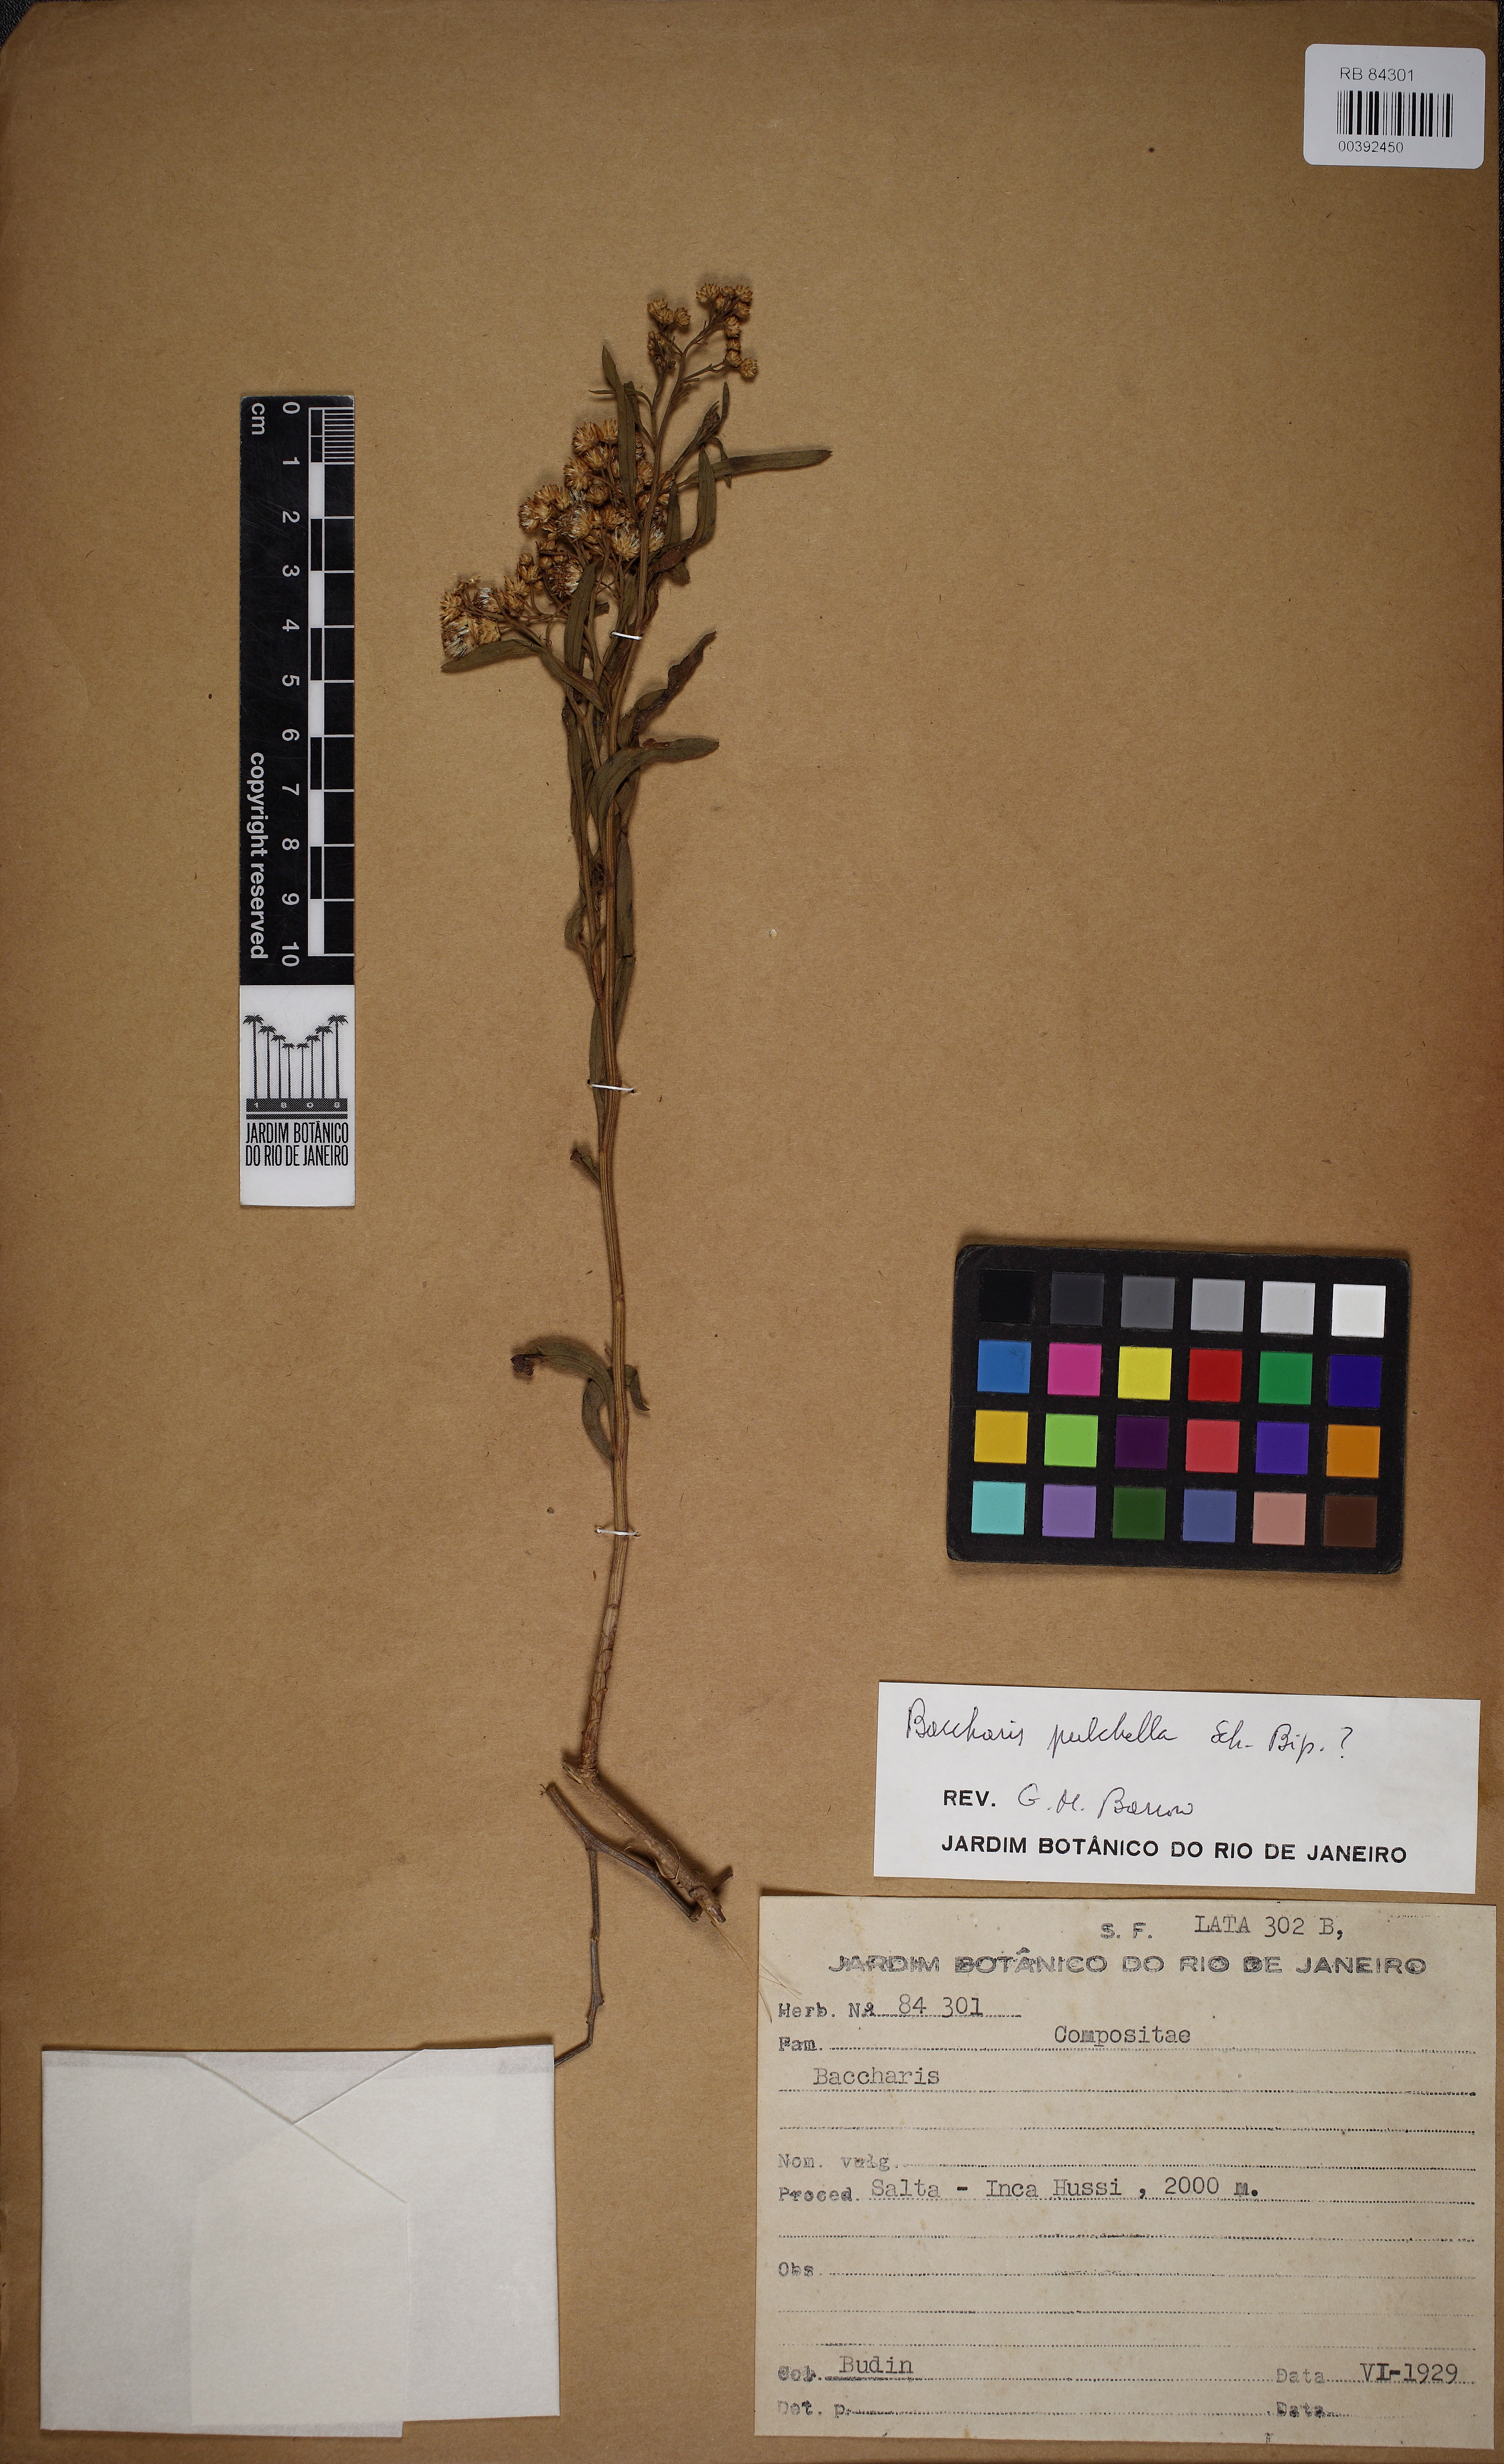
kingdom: Plantae
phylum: Tracheophyta
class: Magnoliopsida
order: Asterales
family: Asteraceae
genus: Baccharis
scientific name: Baccharis salicifolia
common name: Sticky baccharis
